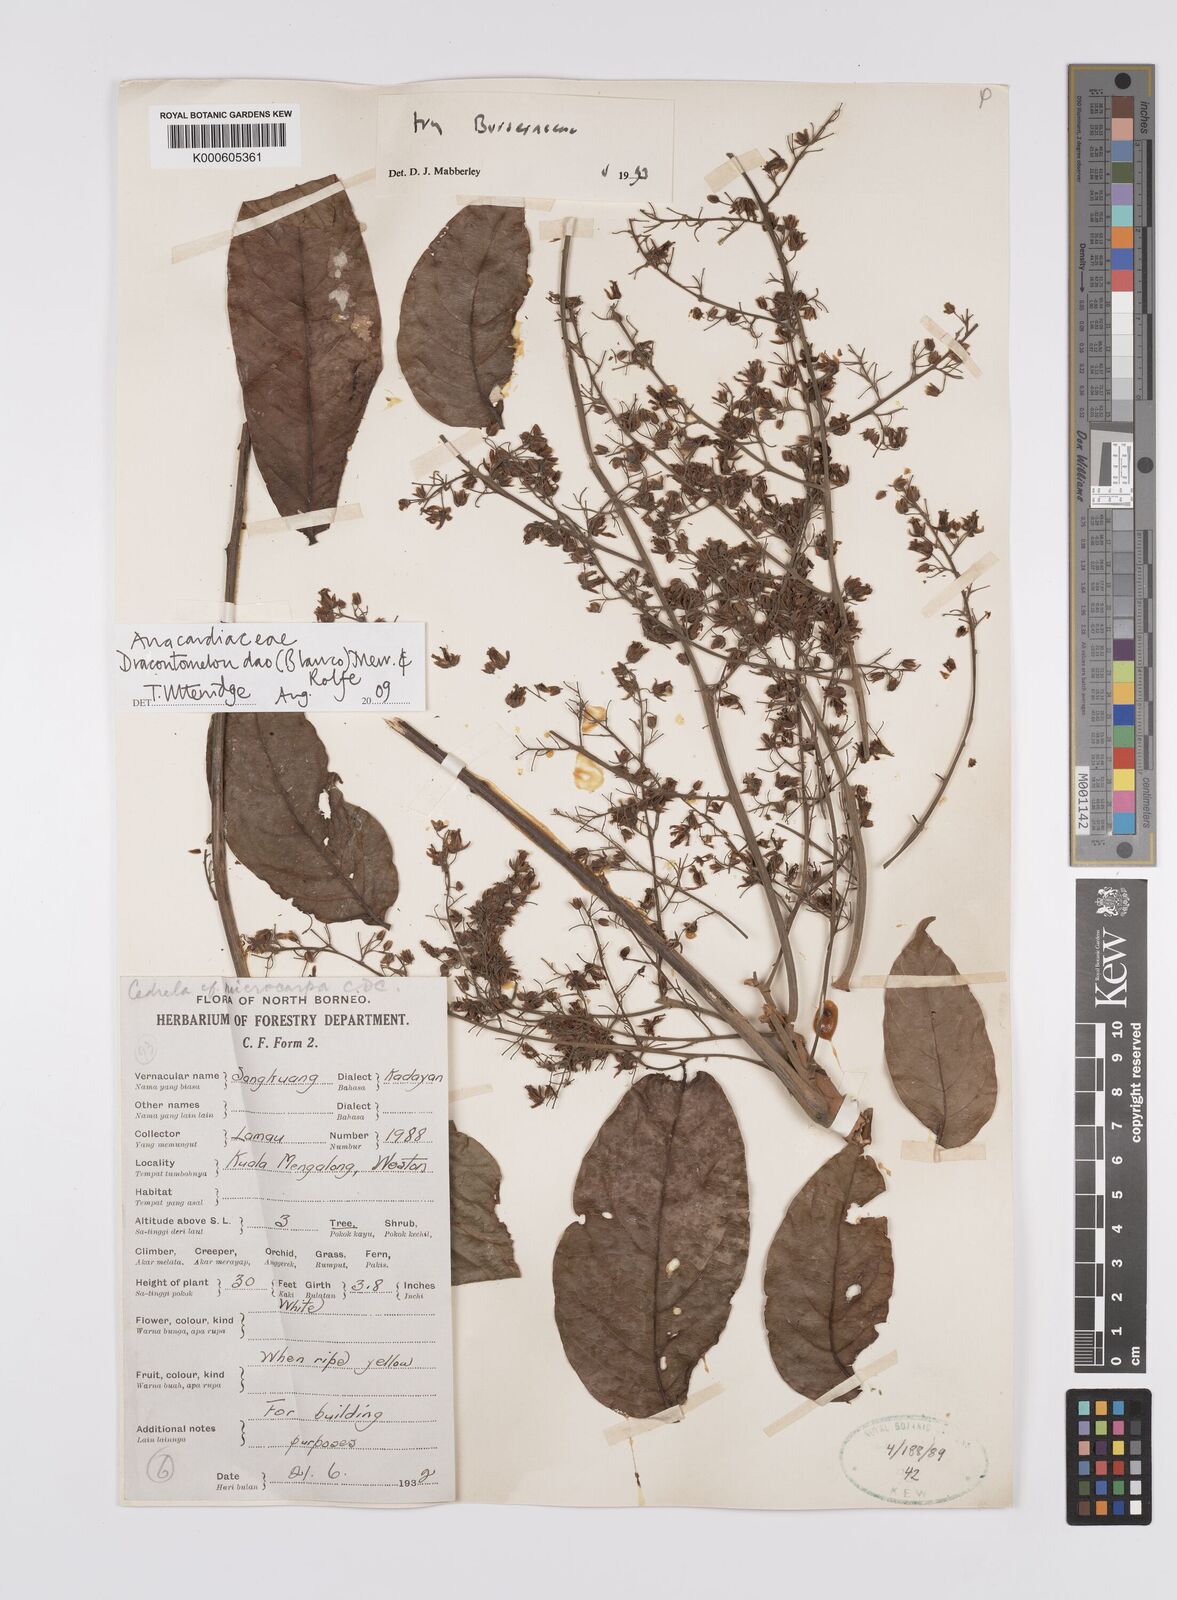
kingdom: Plantae
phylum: Tracheophyta
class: Magnoliopsida
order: Sapindales
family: Anacardiaceae
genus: Dracontomelon
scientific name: Dracontomelon dao
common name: Argus pheasant-tree
